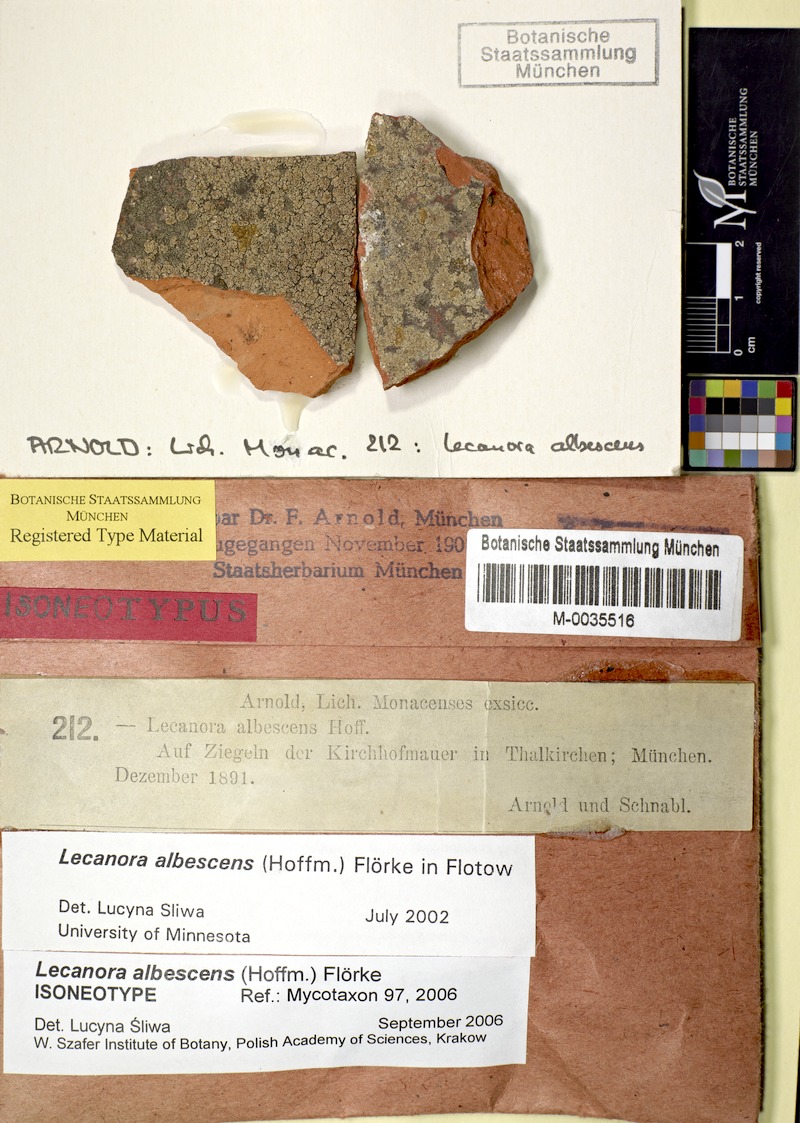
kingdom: Fungi
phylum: Ascomycota
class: Lecanoromycetes
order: Lecanorales
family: Lecanoraceae
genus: Polyozosia
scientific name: Polyozosia albescens
